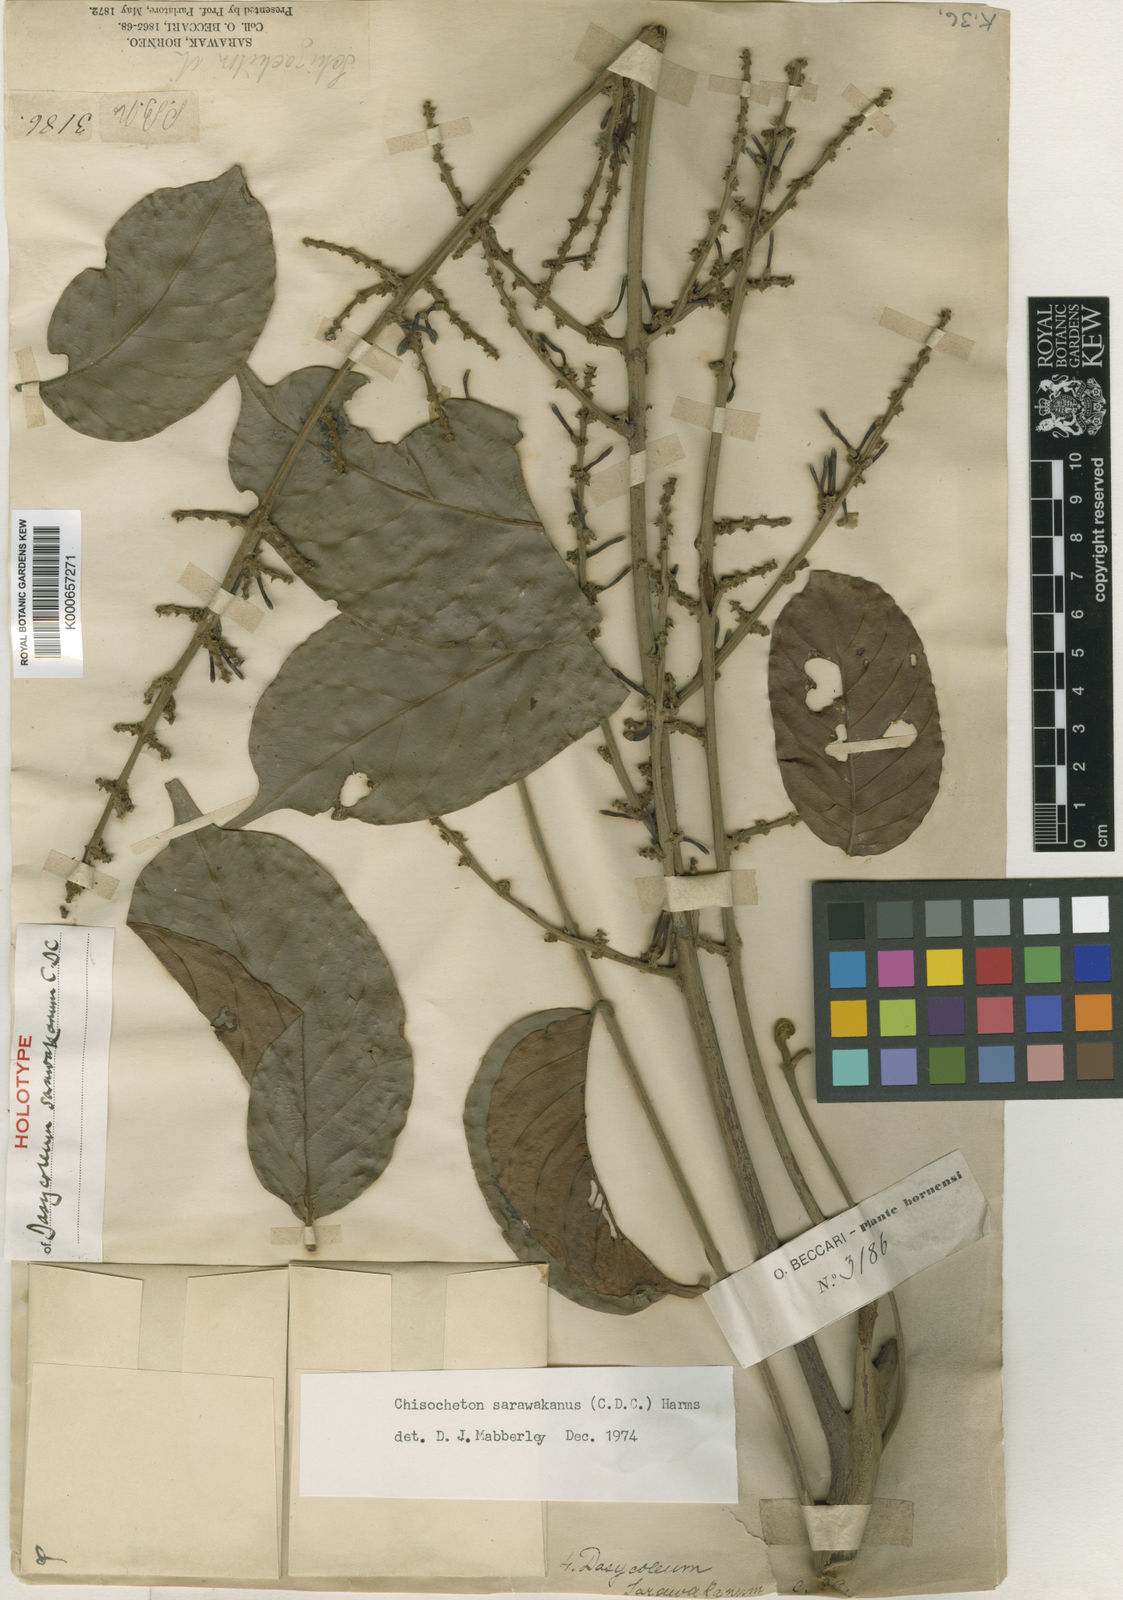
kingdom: Plantae
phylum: Tracheophyta
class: Magnoliopsida
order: Sapindales
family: Meliaceae
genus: Chisocheton
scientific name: Chisocheton sarawakanus
